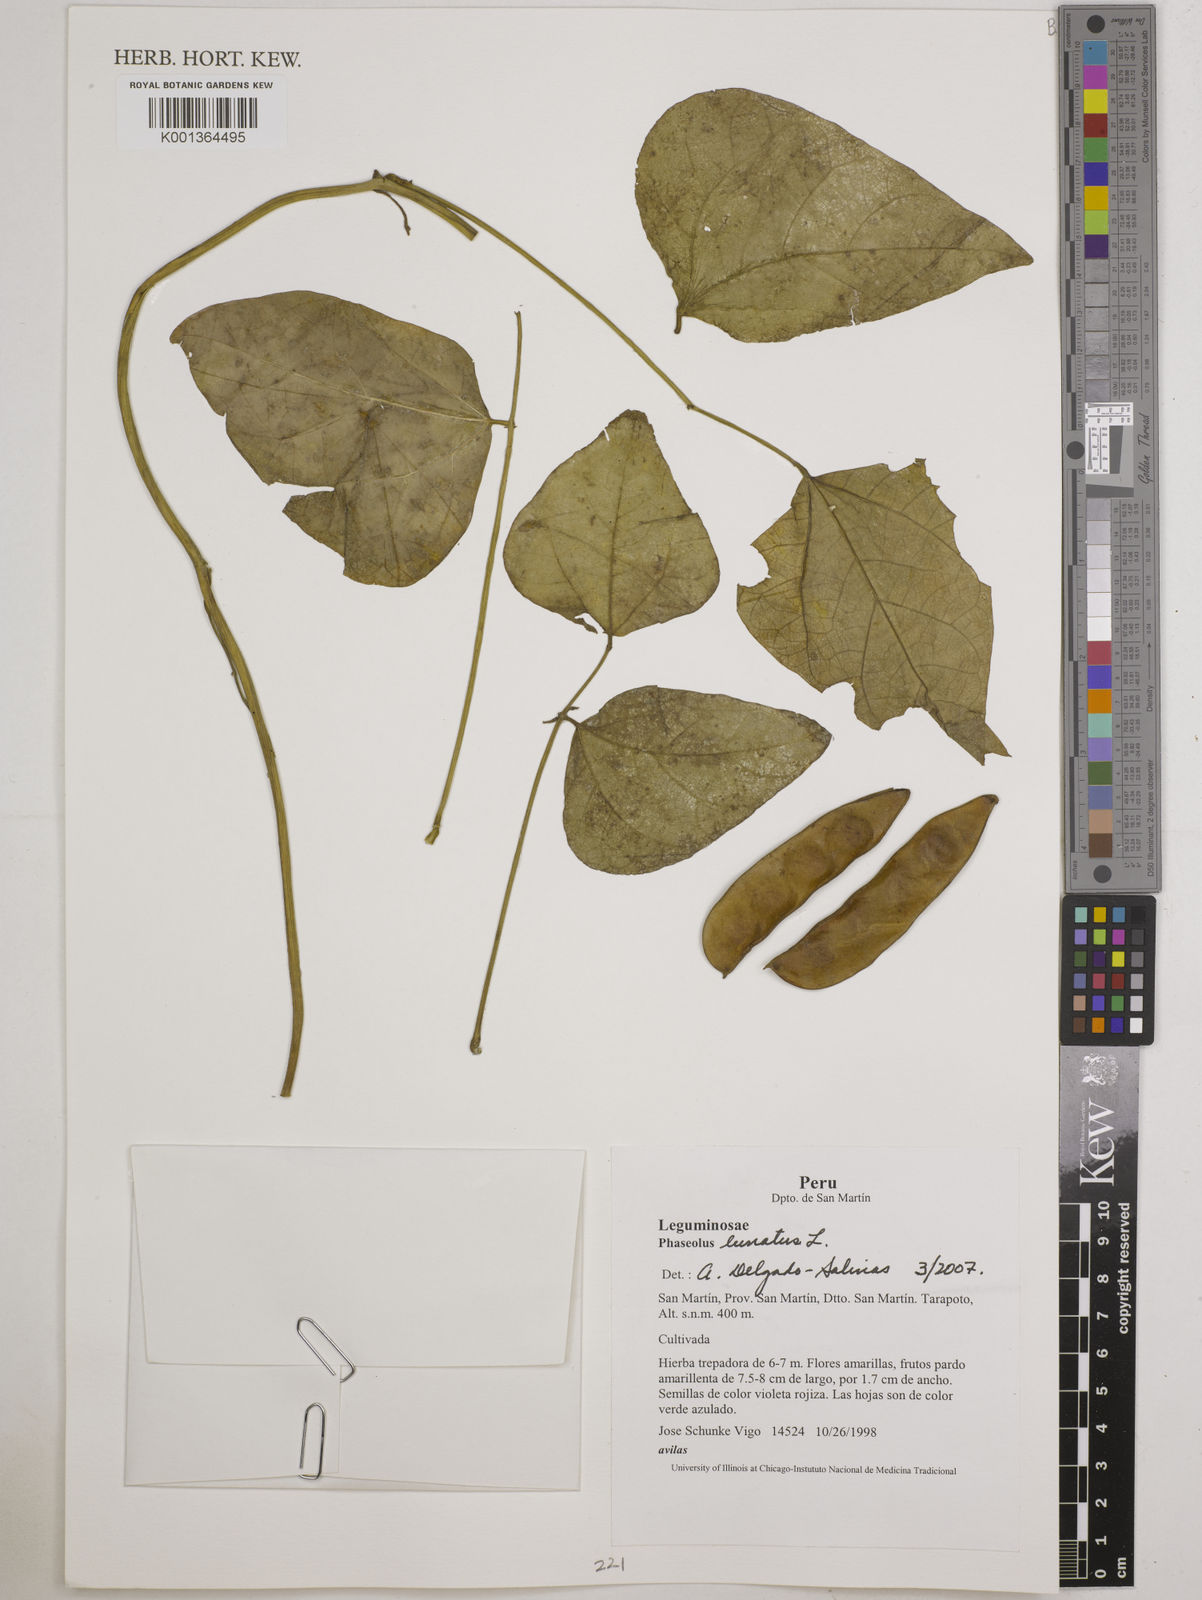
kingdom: Plantae
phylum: Tracheophyta
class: Magnoliopsida
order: Fabales
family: Fabaceae
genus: Phaseolus
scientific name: Phaseolus lunatus
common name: Sieva bean
